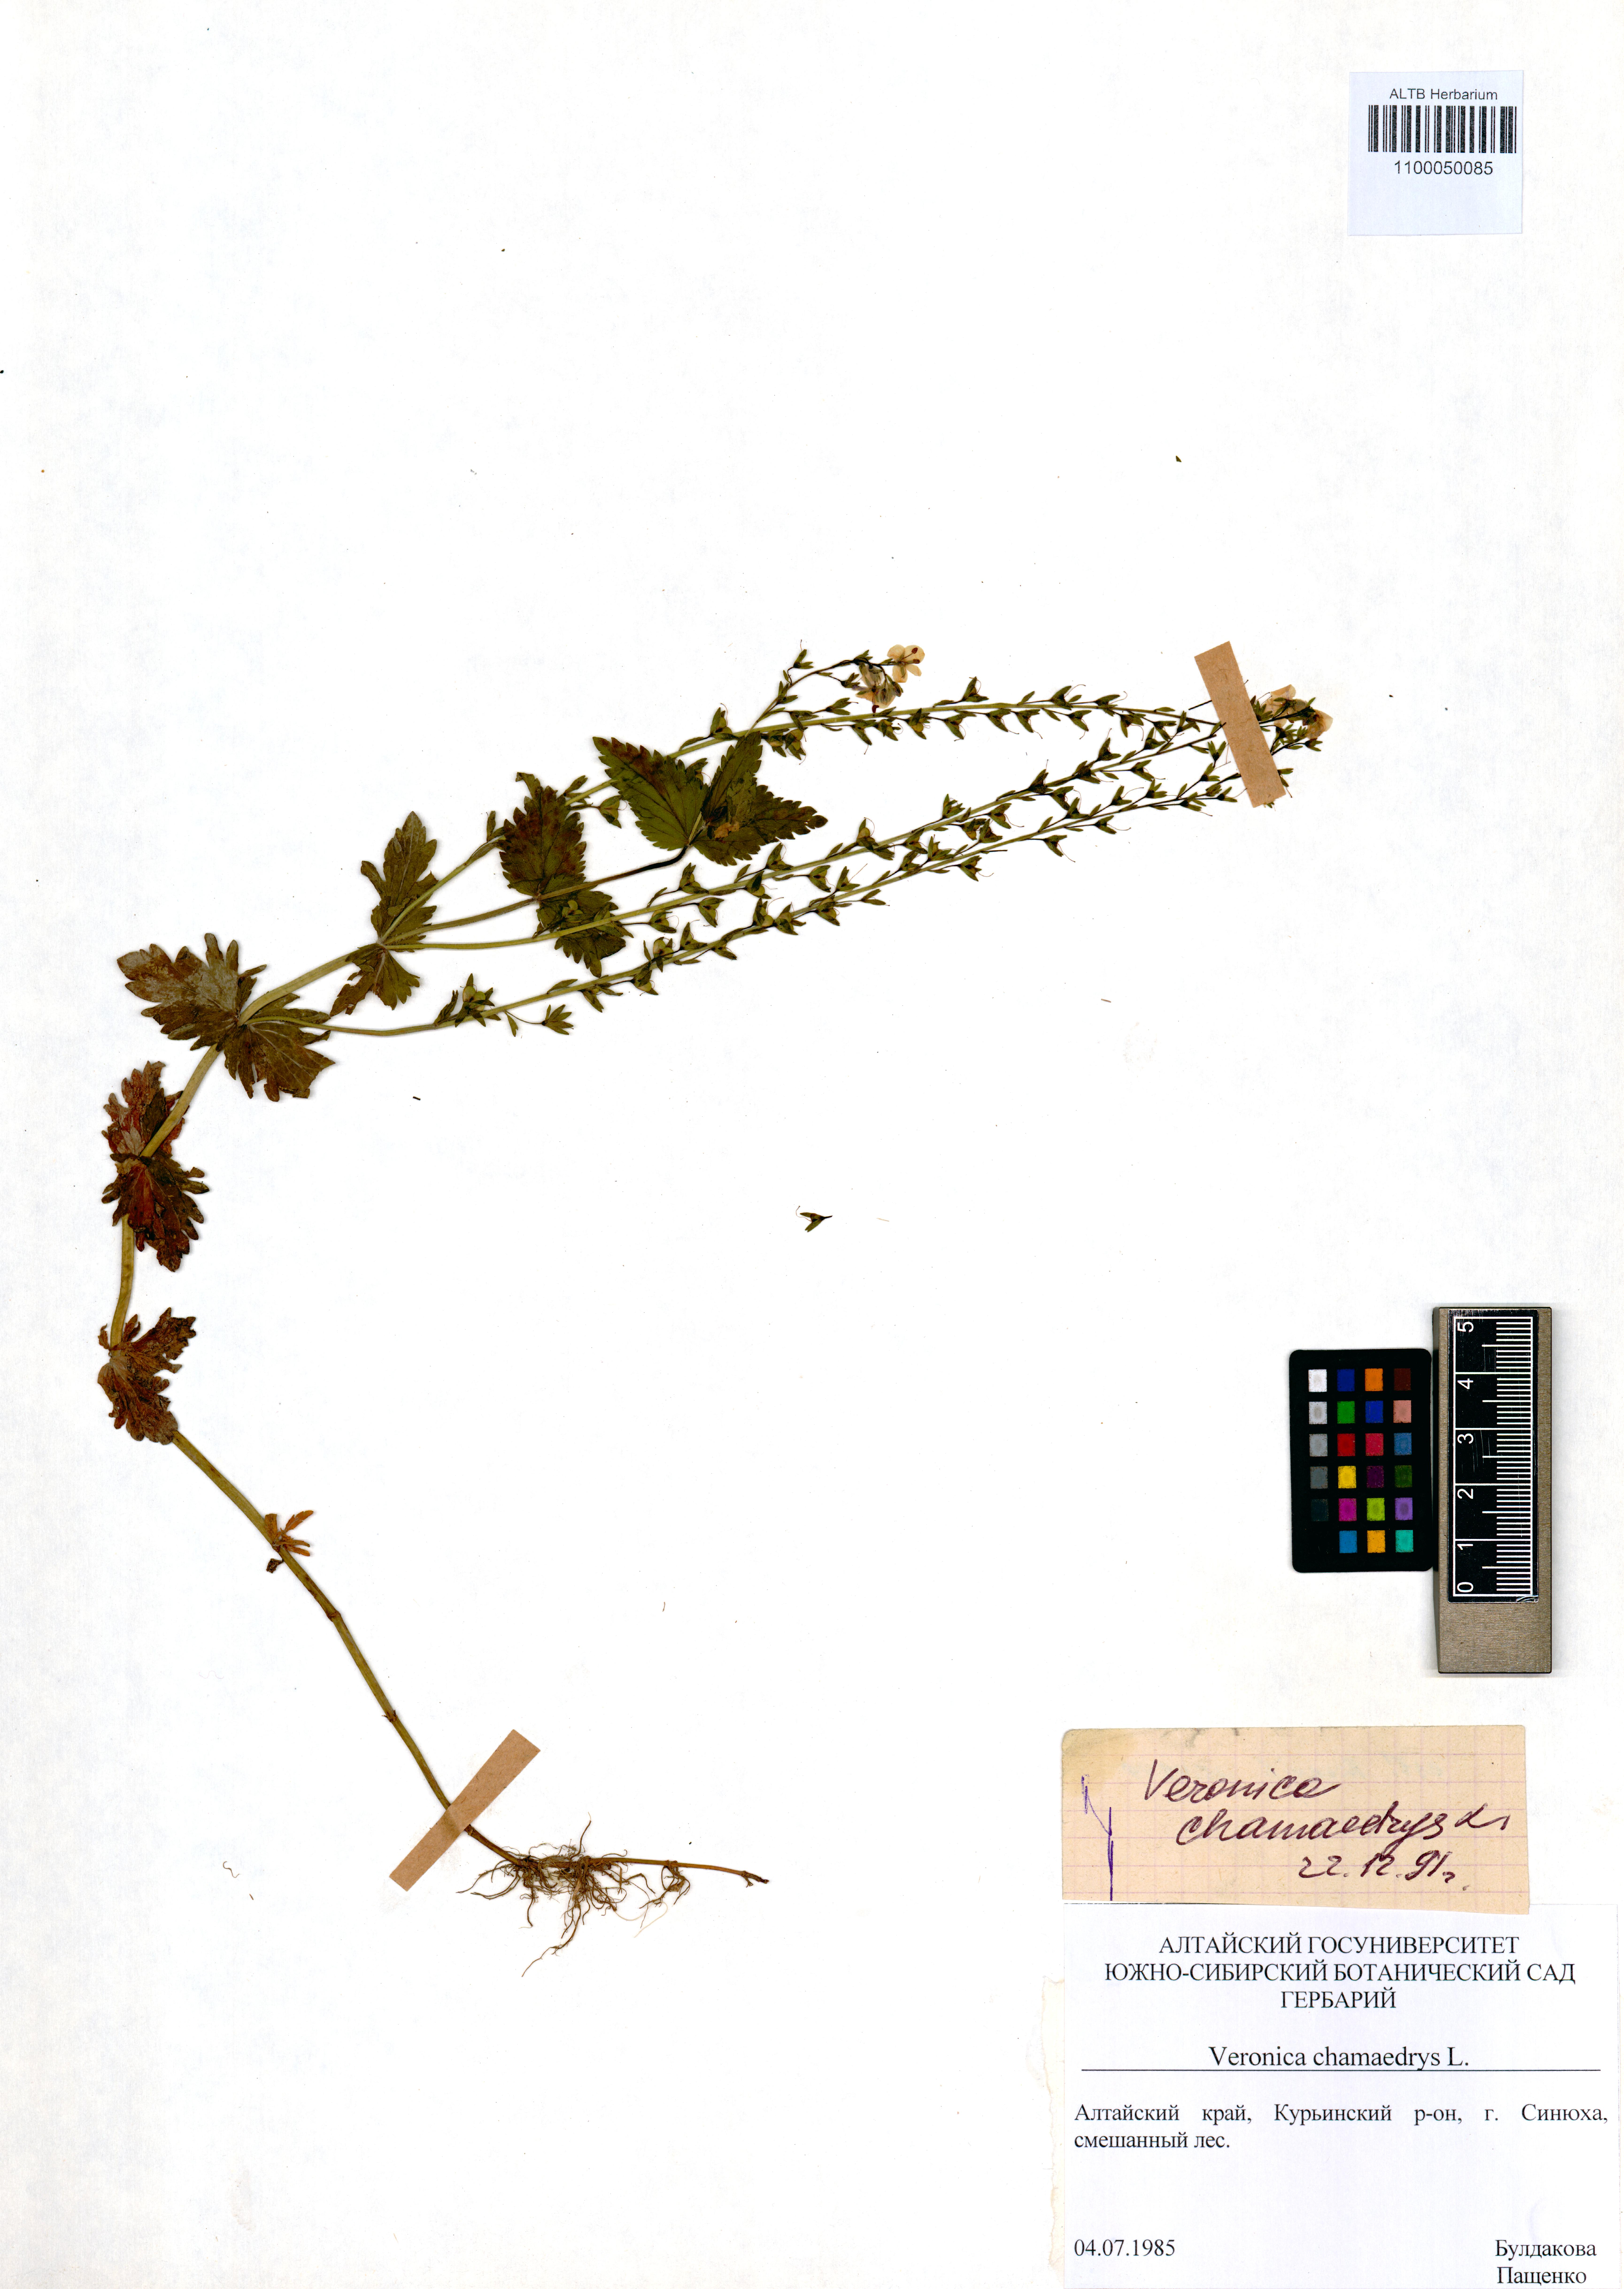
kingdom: Plantae
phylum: Tracheophyta
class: Magnoliopsida
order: Lamiales
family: Plantaginaceae
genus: Veronica
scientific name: Veronica chamaedrys
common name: Germander speedwell
